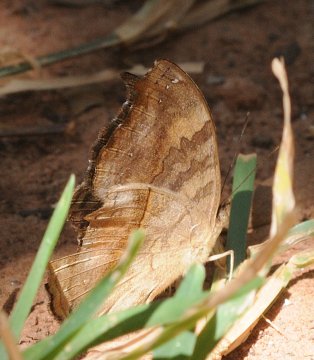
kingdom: Animalia
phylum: Arthropoda
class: Insecta
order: Lepidoptera
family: Nymphalidae
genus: Junonia
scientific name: Junonia terea
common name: Soldier Pansy
